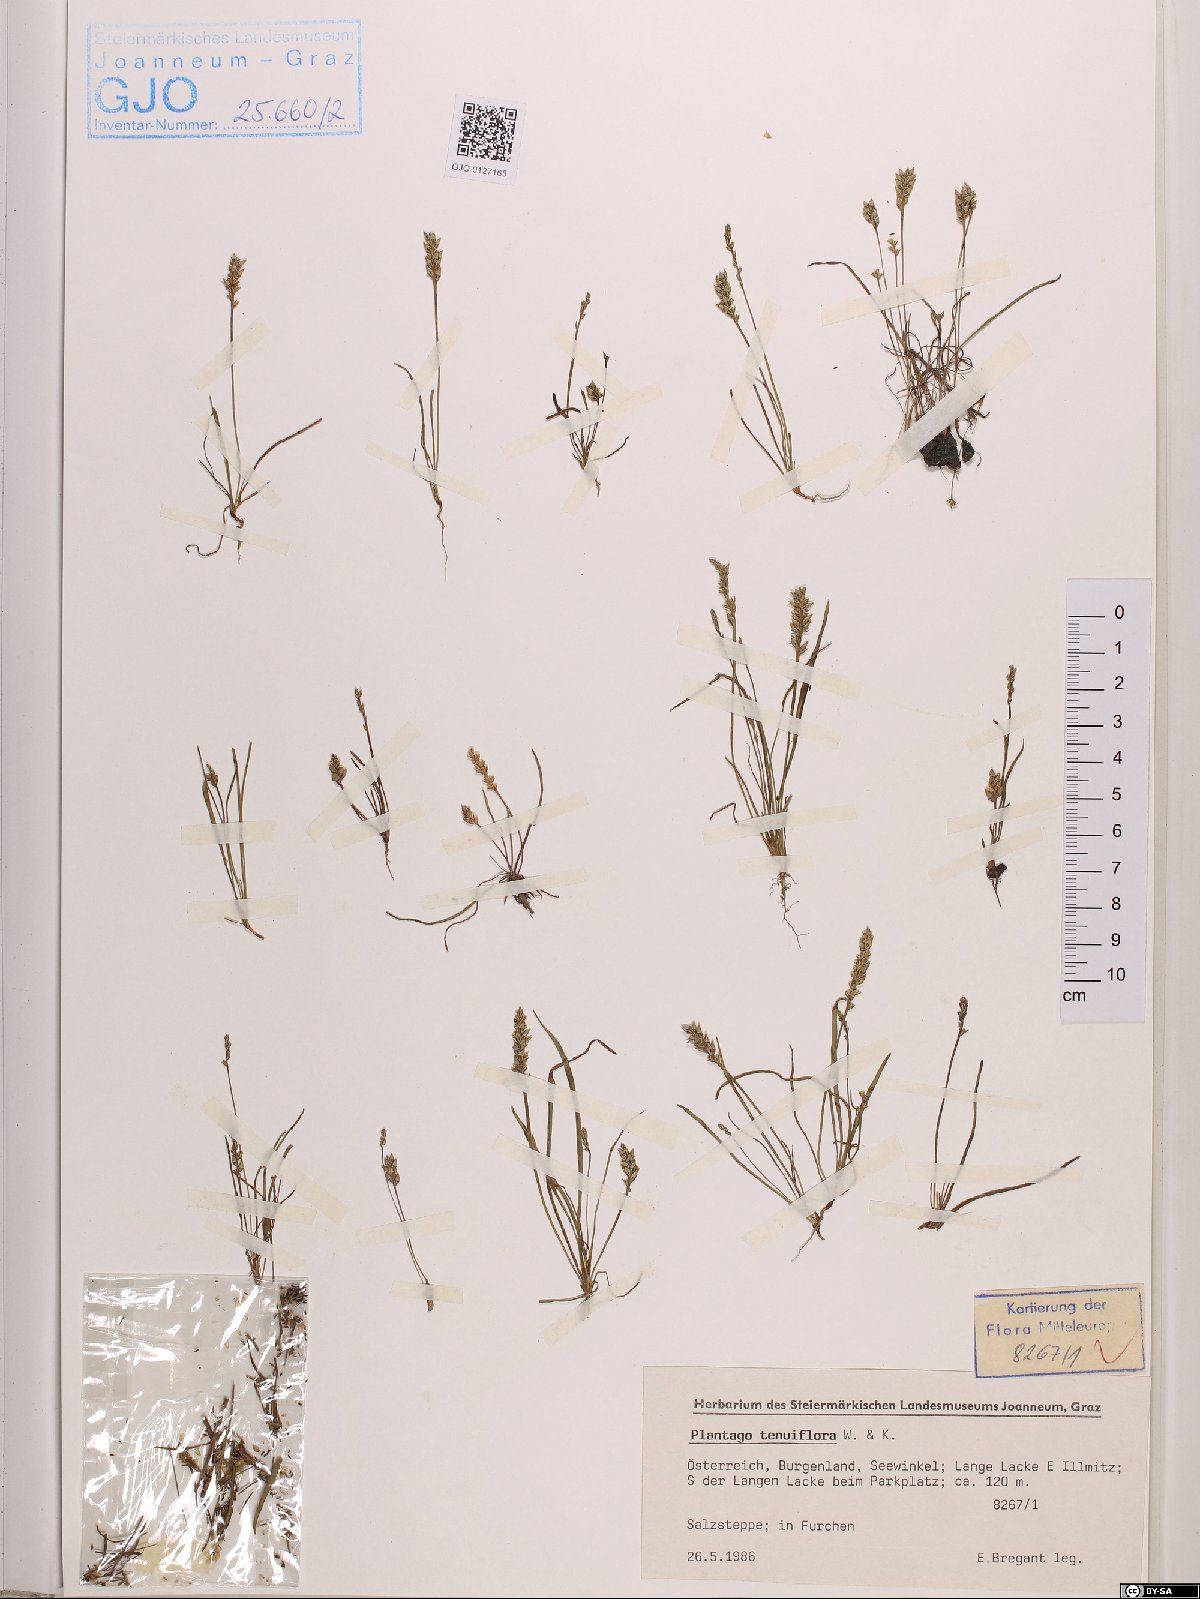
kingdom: Plantae
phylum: Tracheophyta
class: Magnoliopsida
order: Lamiales
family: Plantaginaceae
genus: Plantago
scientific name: Plantago tenuiflora
